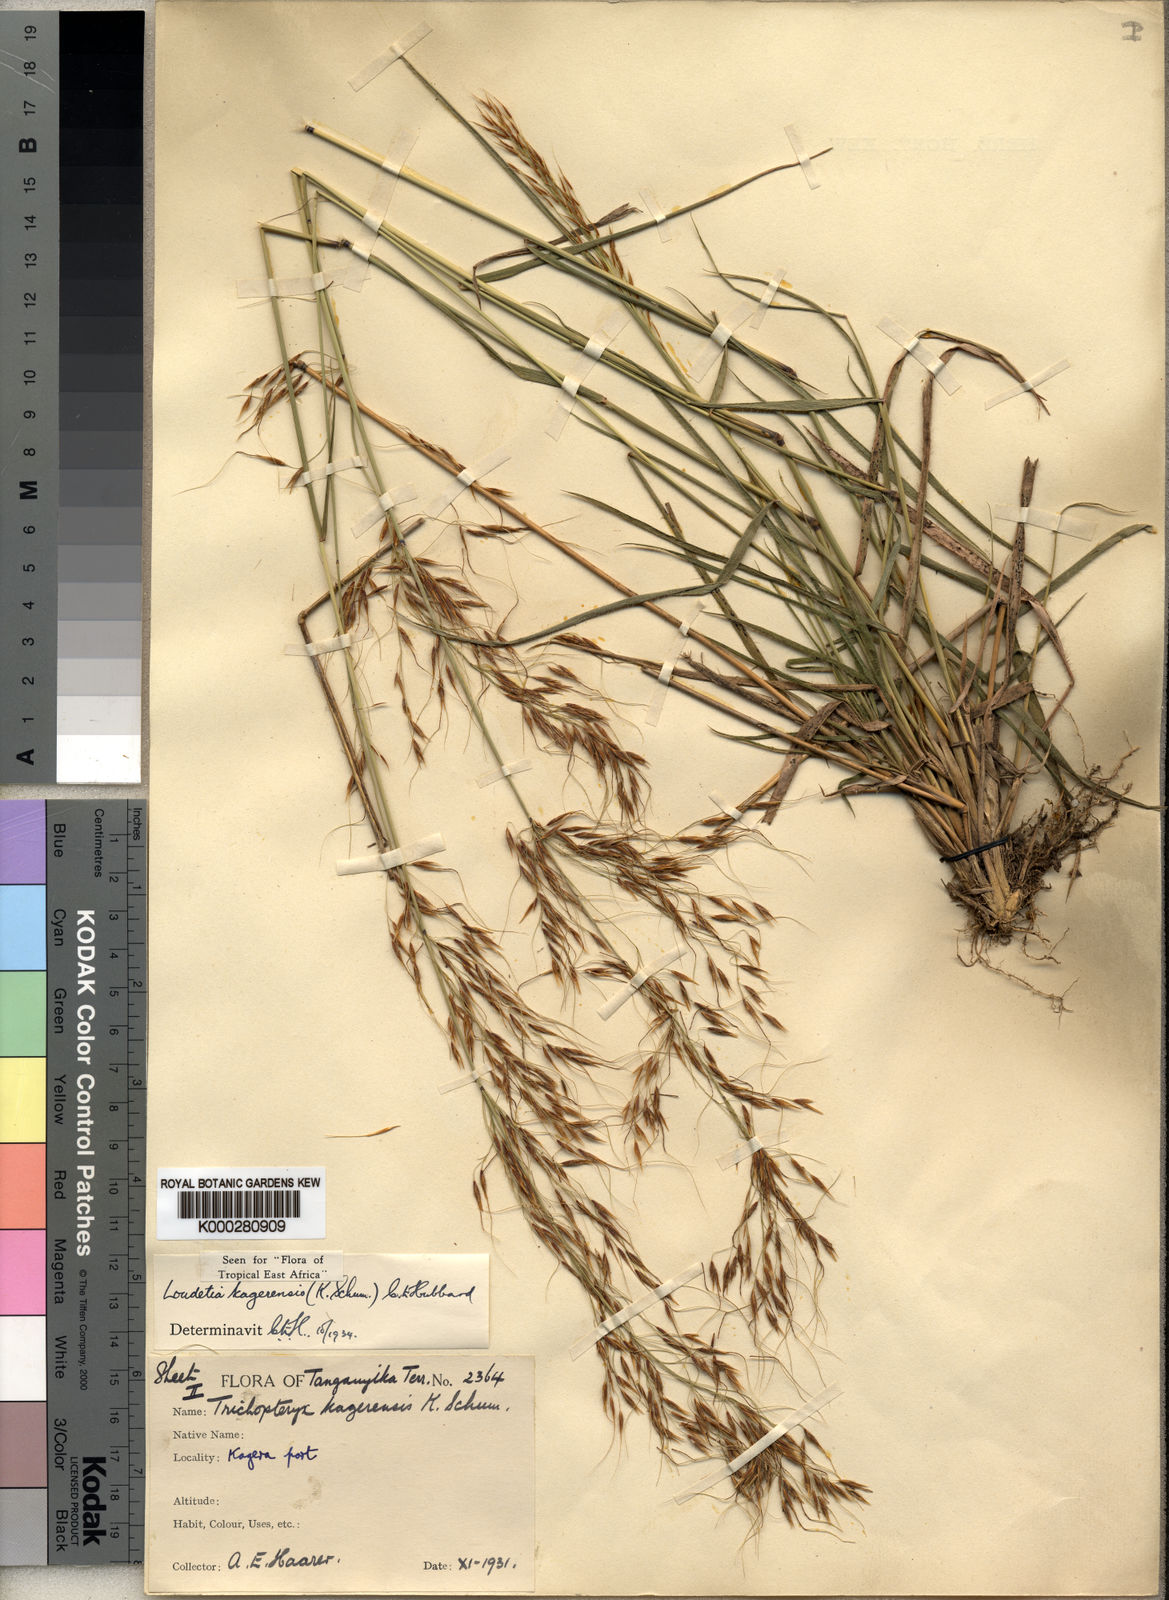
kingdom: Plantae
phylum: Tracheophyta
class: Liliopsida
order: Poales
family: Poaceae
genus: Loudetia
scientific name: Loudetia kagerensis
